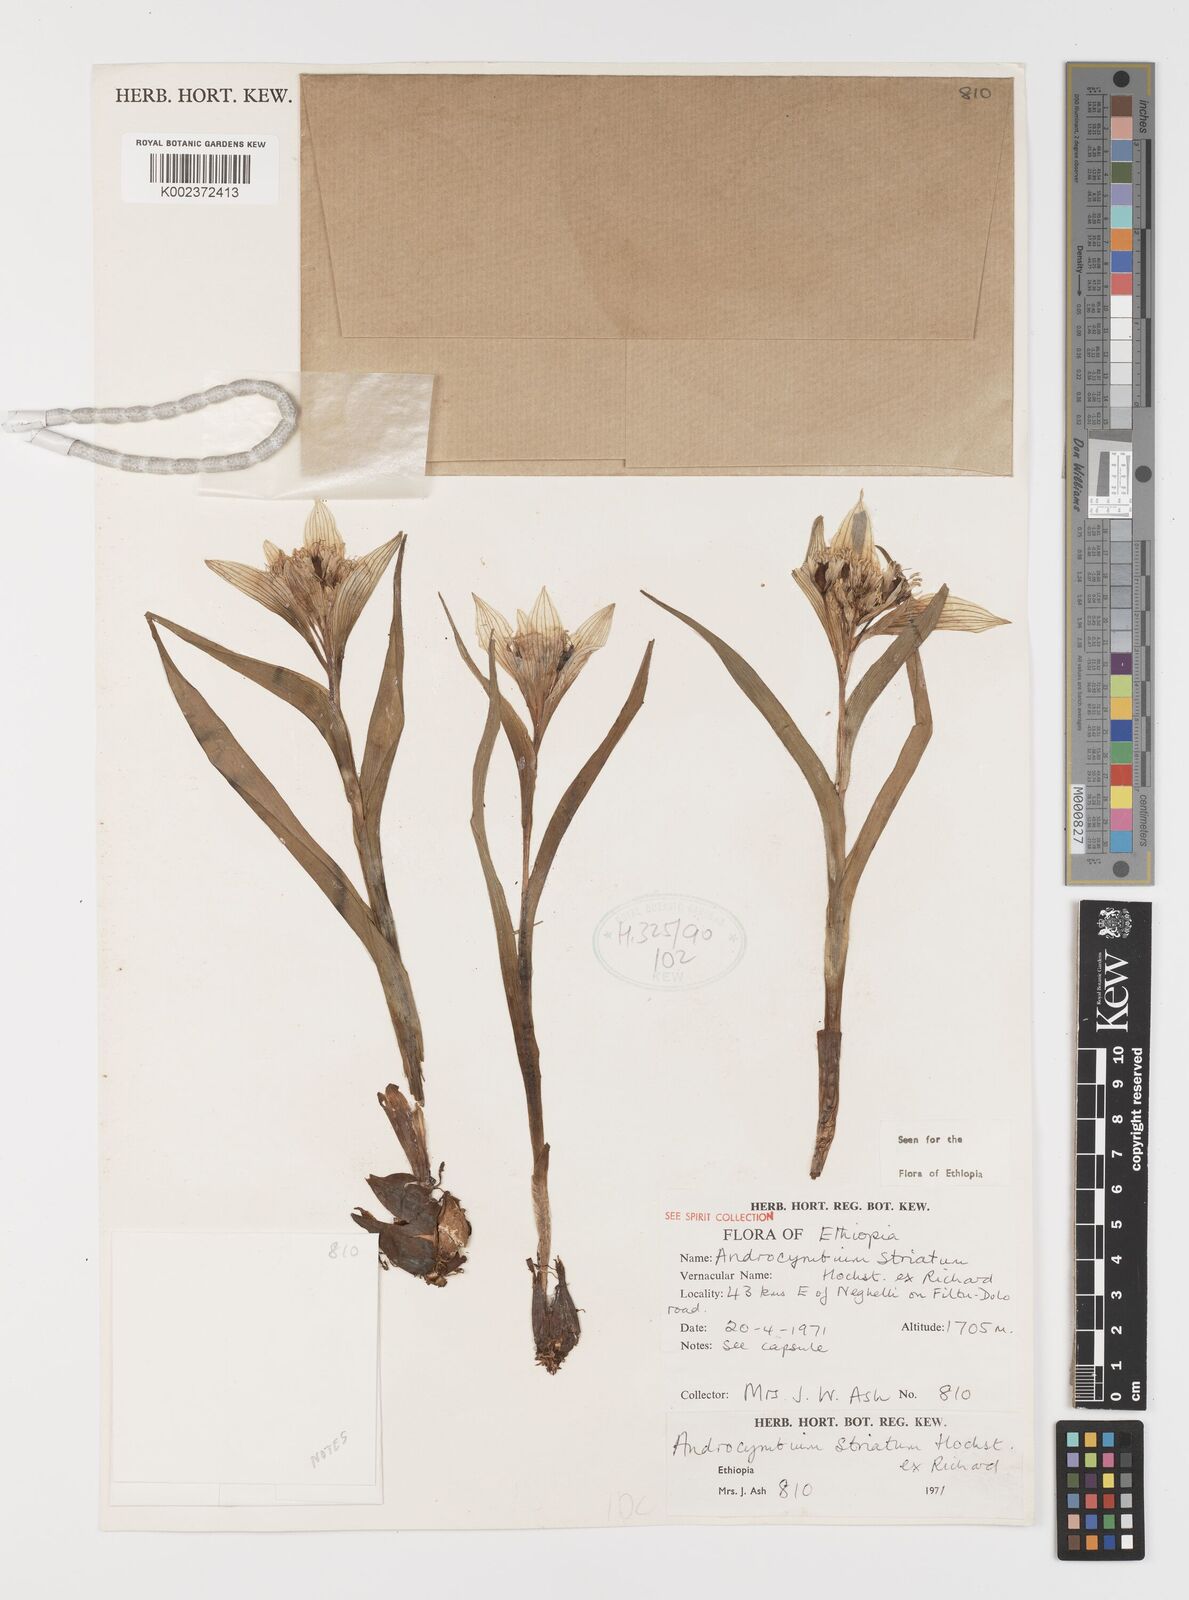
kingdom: Plantae
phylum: Tracheophyta
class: Liliopsida
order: Liliales
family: Colchicaceae
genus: Colchicum
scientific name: Colchicum striatum
